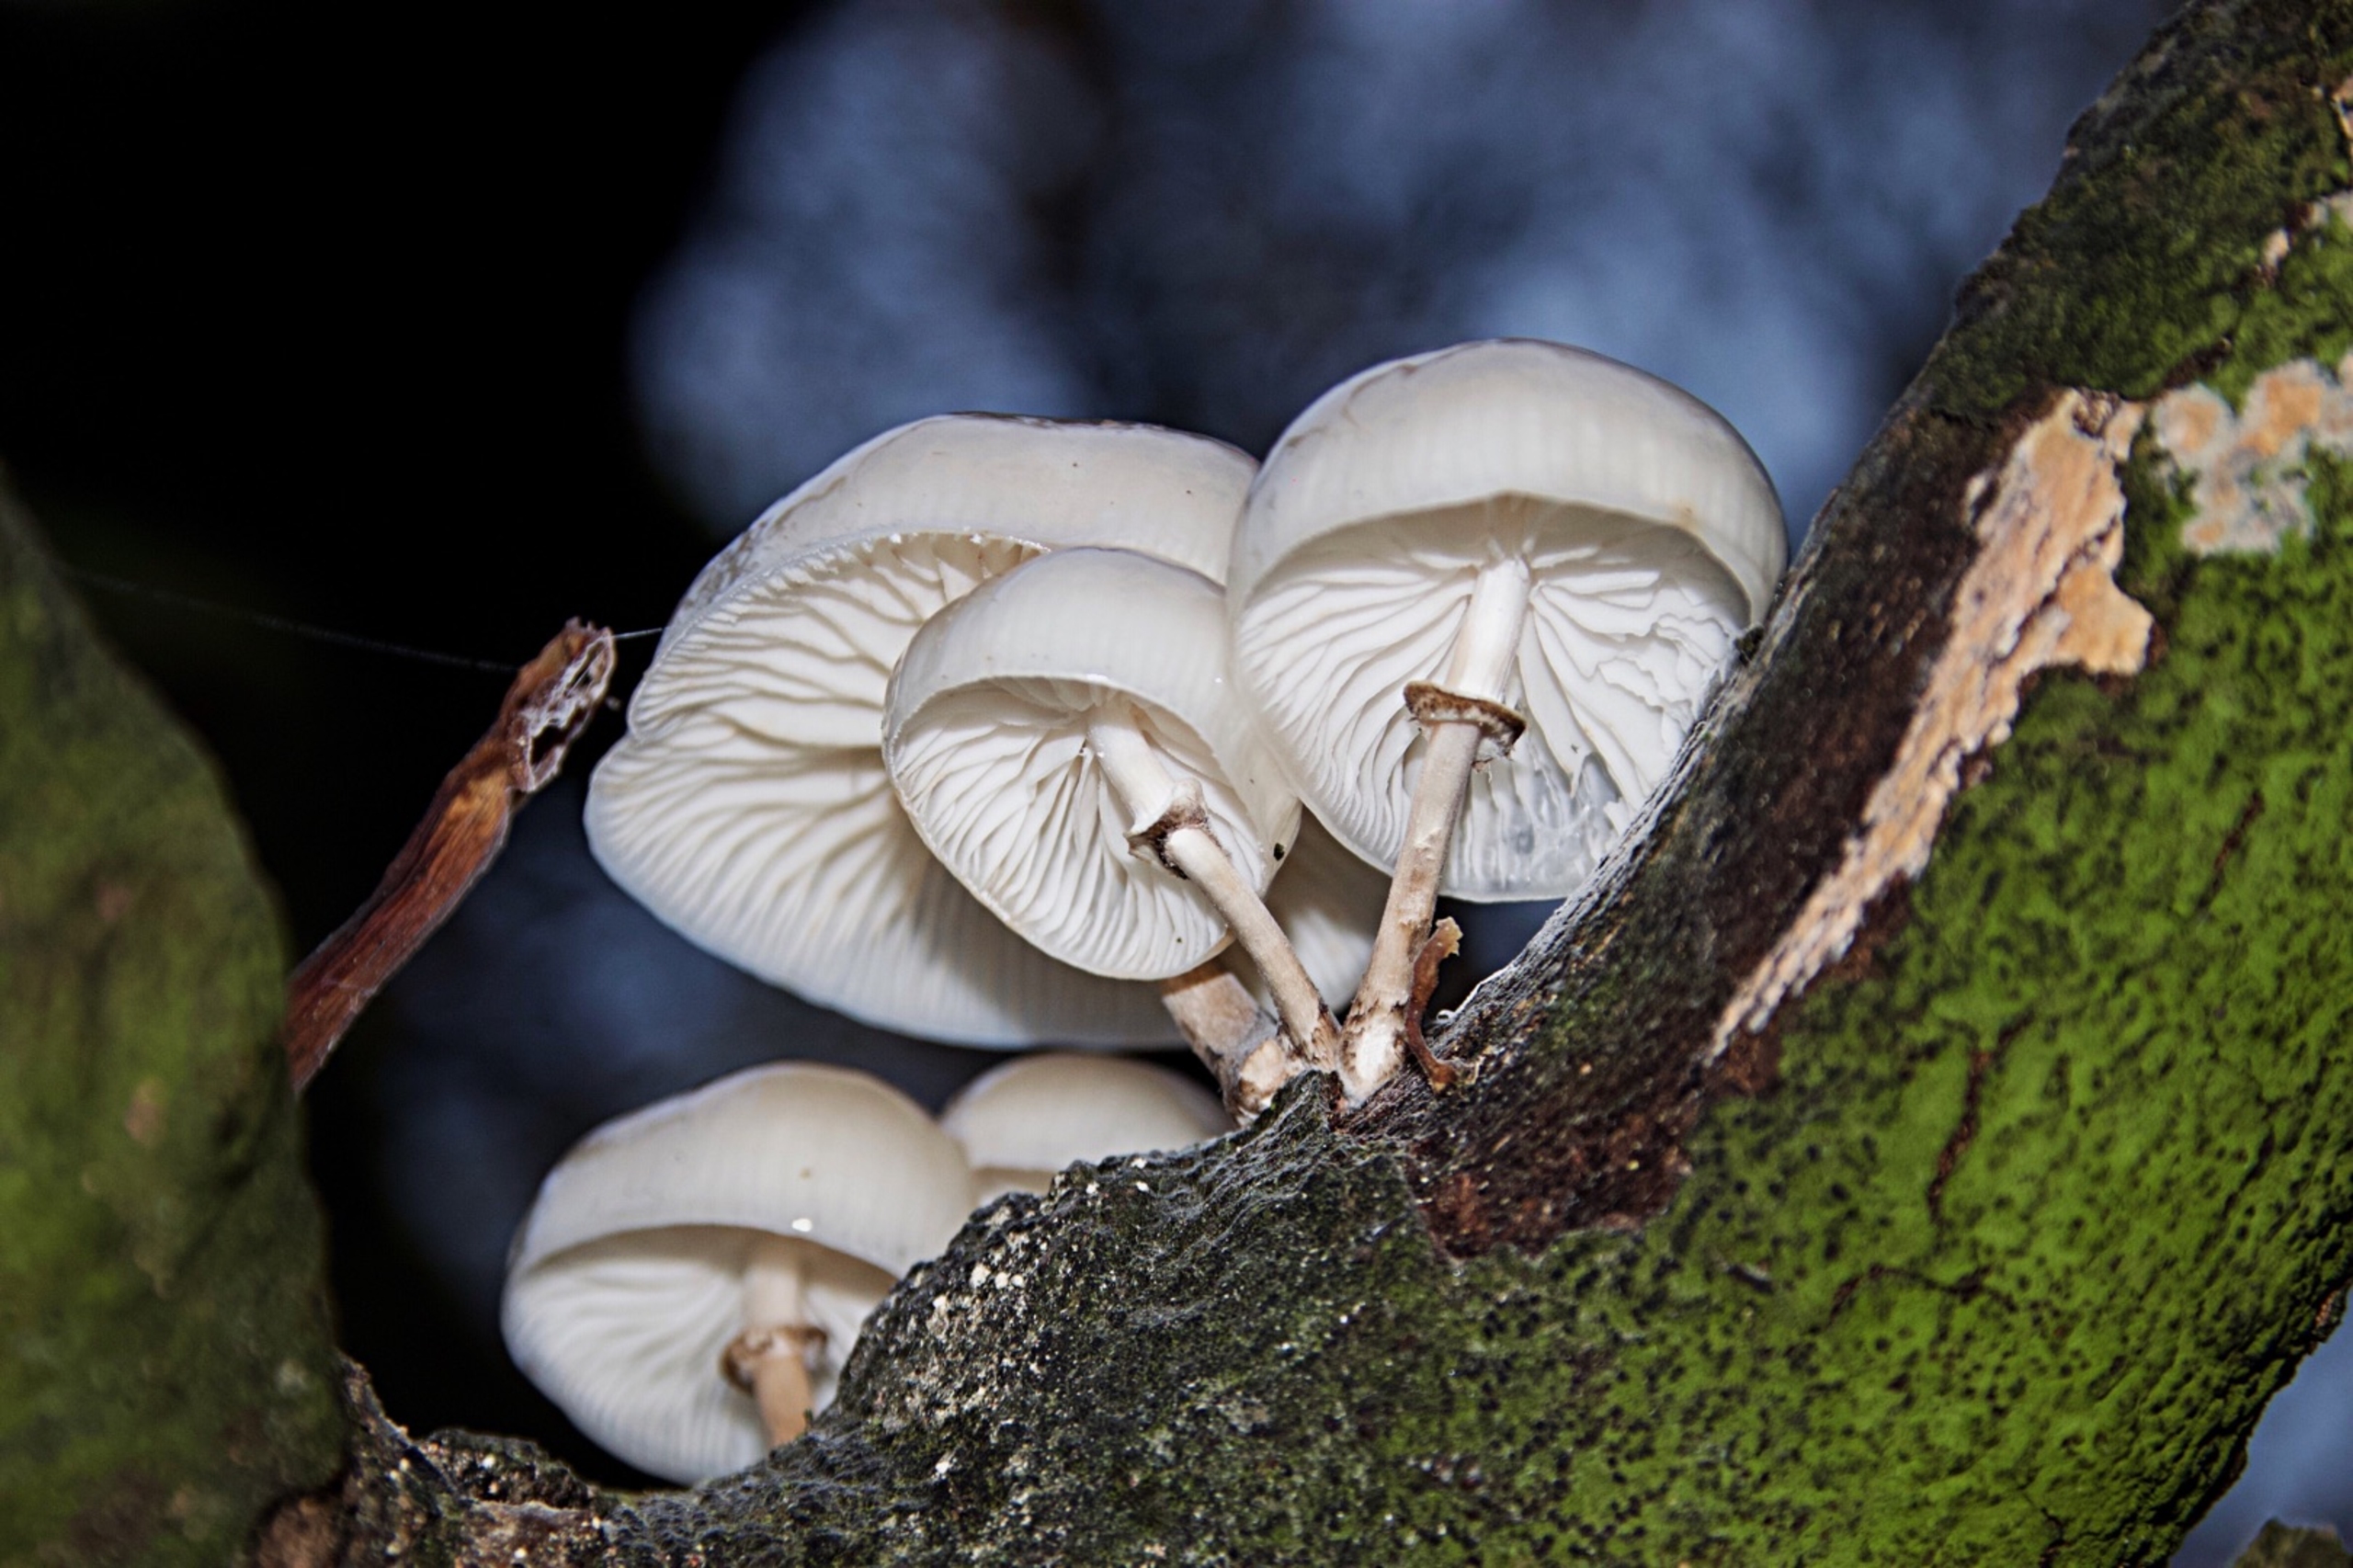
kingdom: Fungi
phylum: Basidiomycota
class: Agaricomycetes
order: Agaricales
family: Physalacriaceae
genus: Mucidula
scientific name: Mucidula
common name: Porcelænshat
